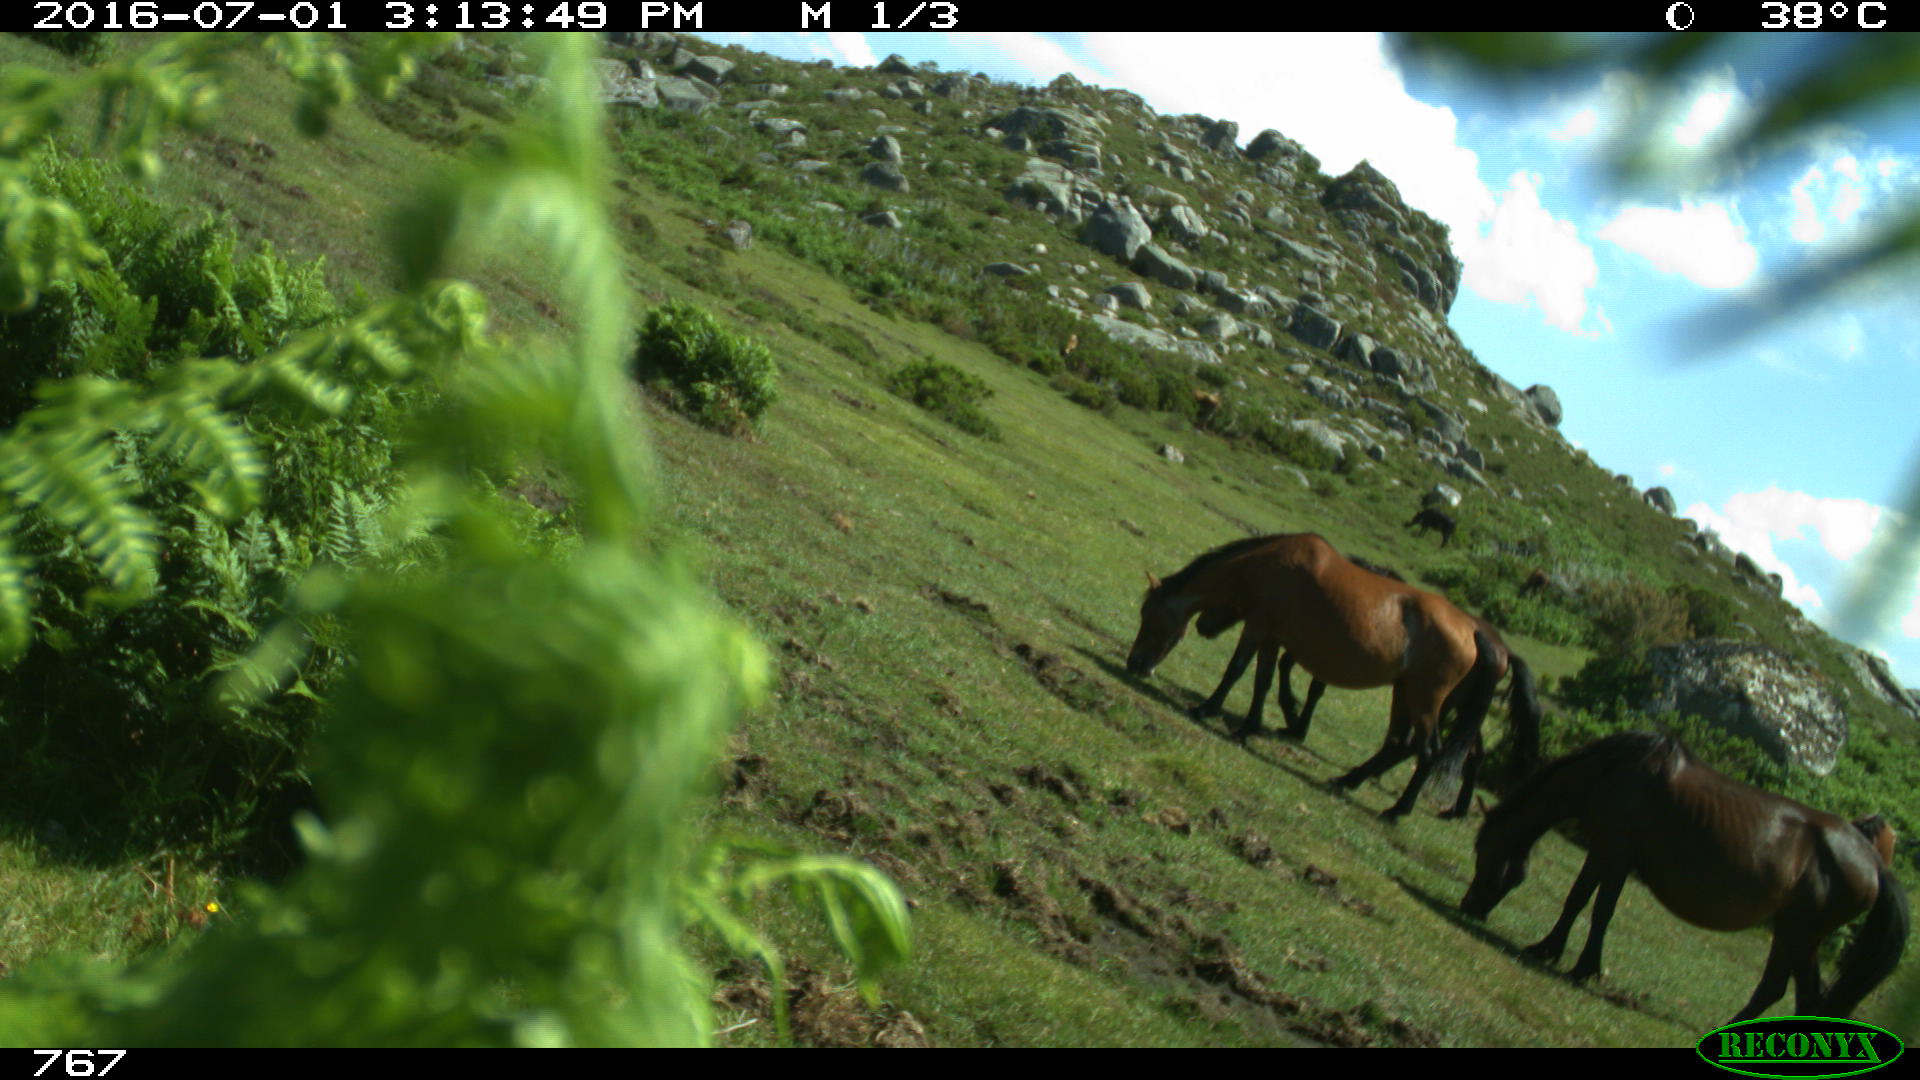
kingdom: Animalia
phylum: Chordata
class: Mammalia
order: Artiodactyla
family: Bovidae
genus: Bos
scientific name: Bos taurus
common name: Domesticated cattle
